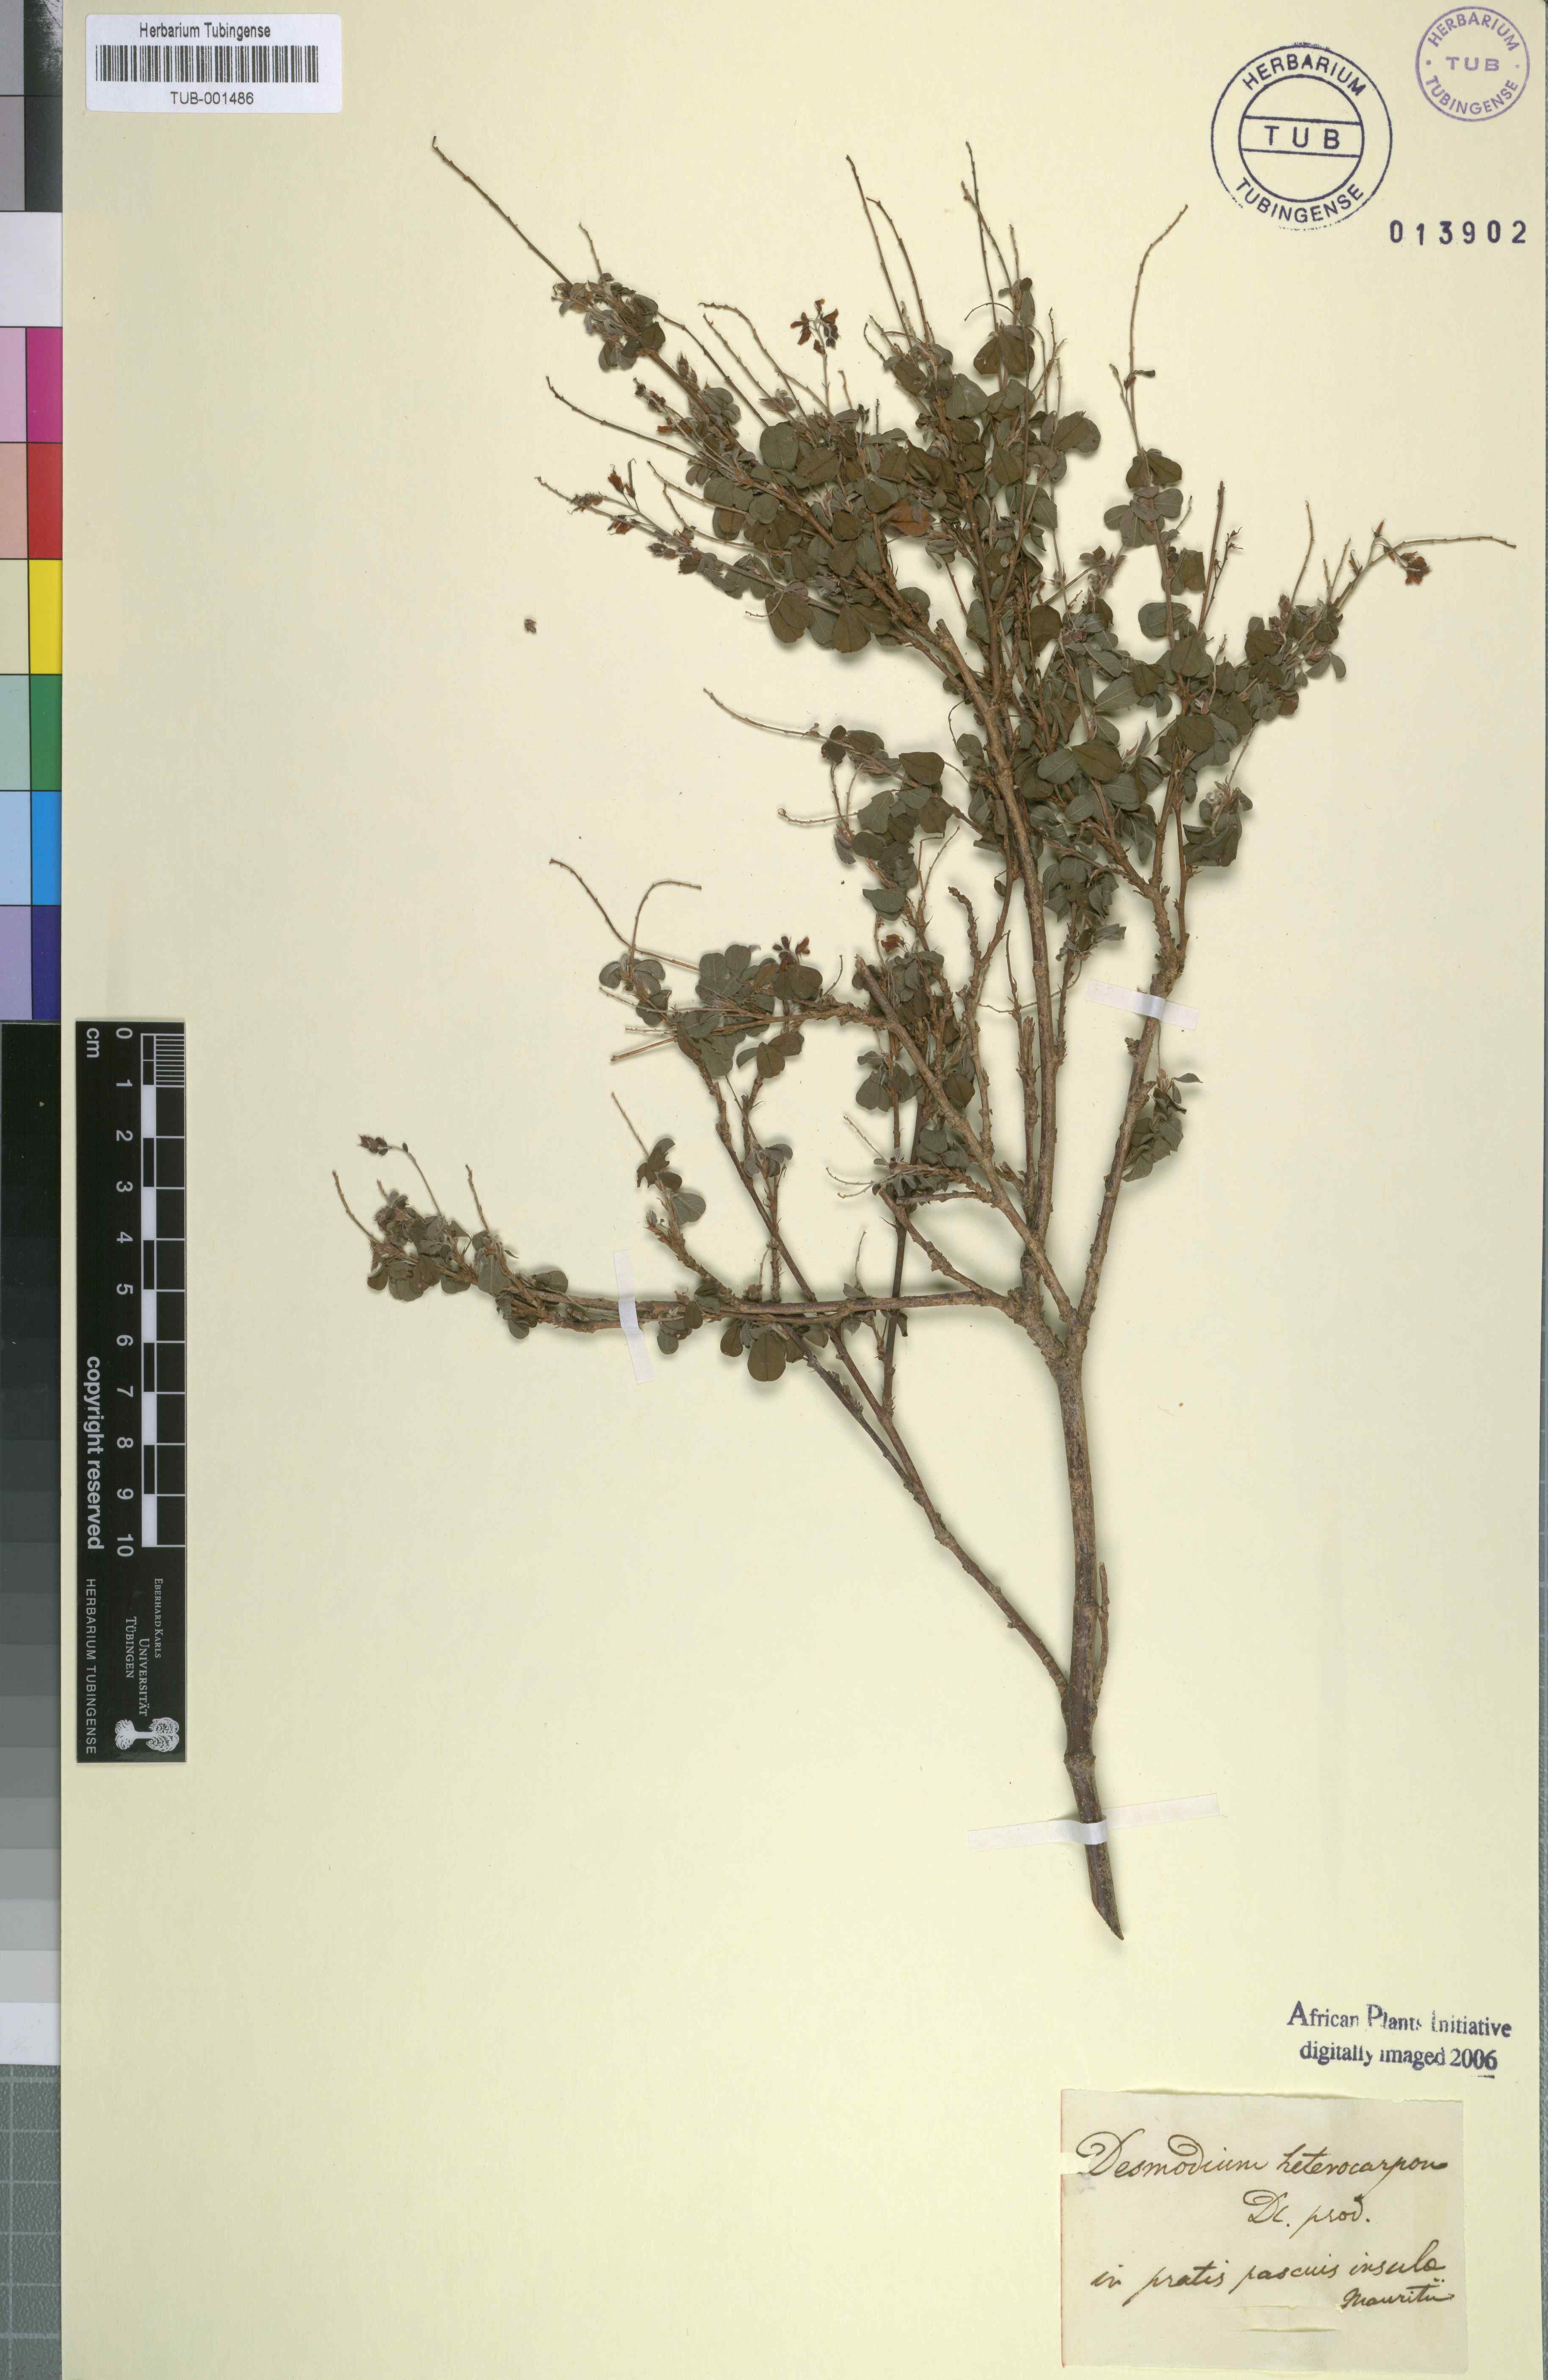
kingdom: Plantae
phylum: Tracheophyta
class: Magnoliopsida
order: Fabales
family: Fabaceae
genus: Grona
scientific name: Grona heterocarpos
